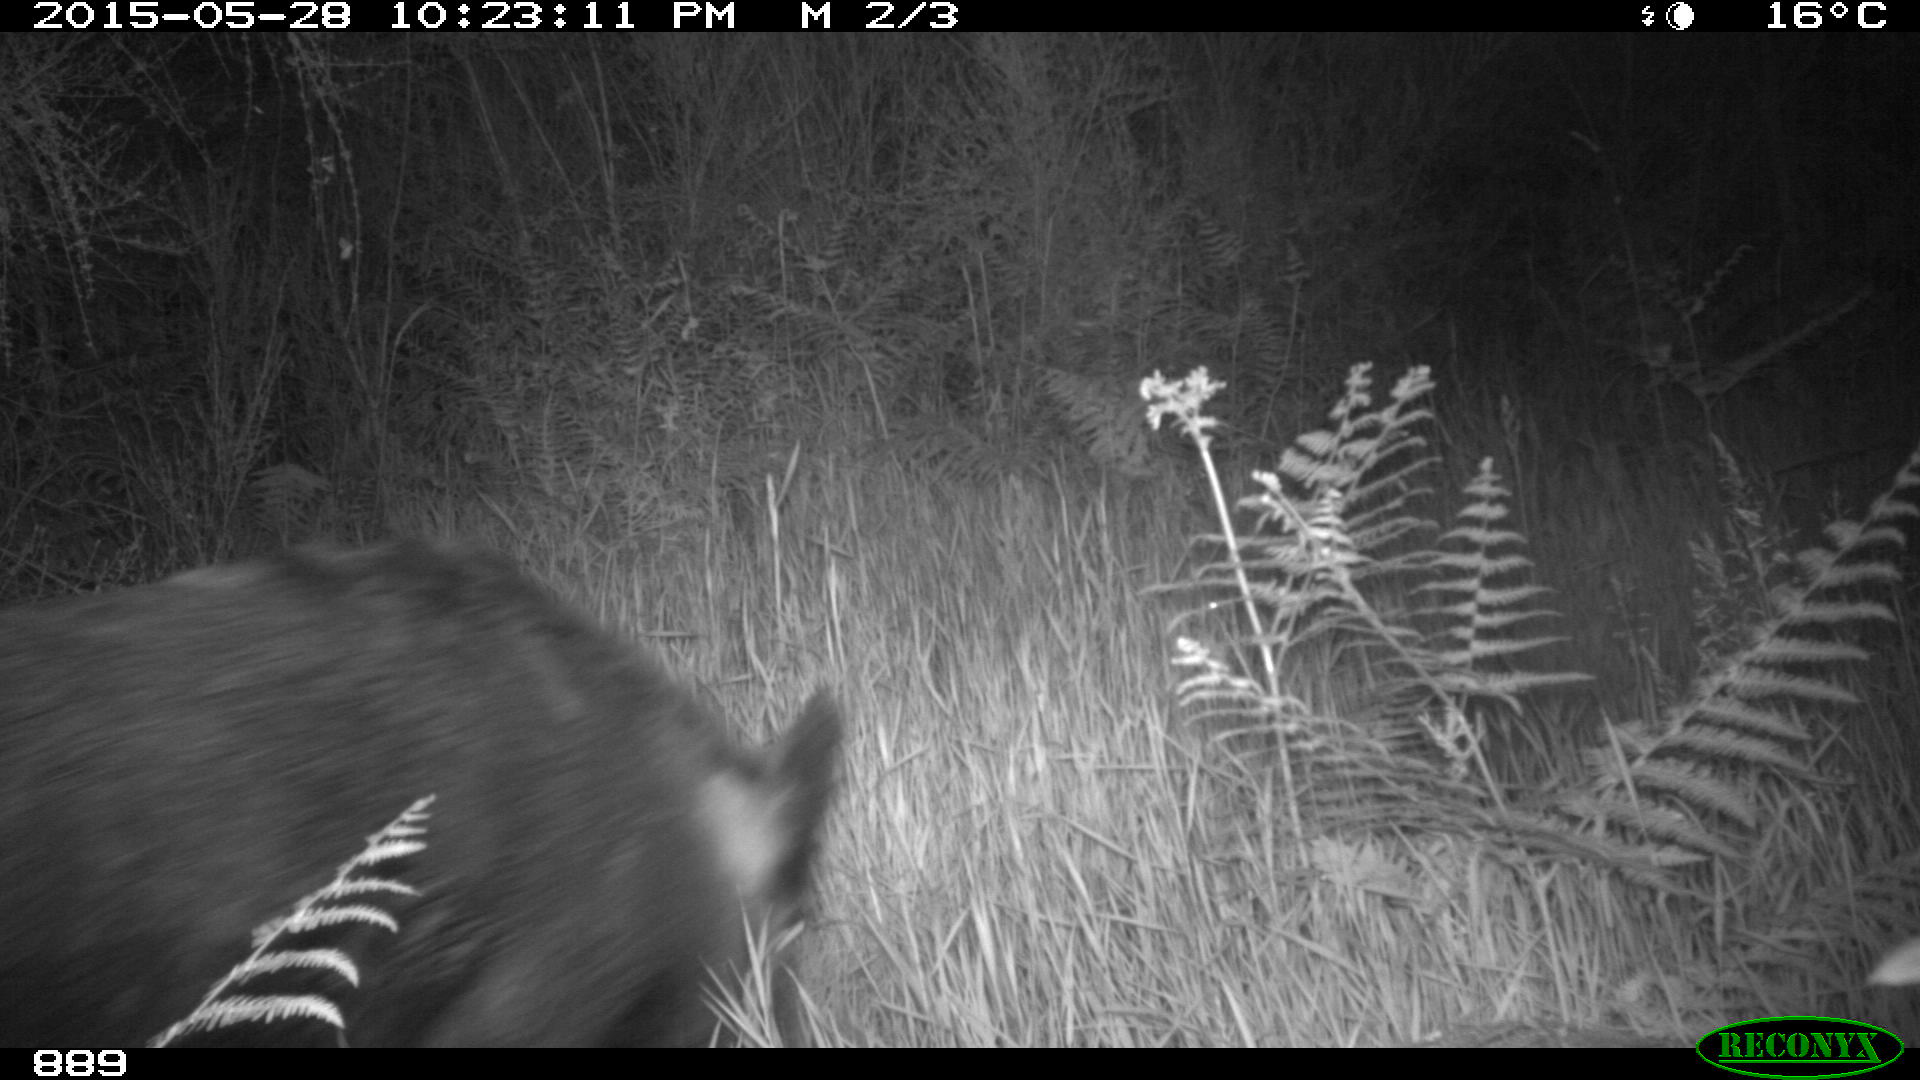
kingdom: Animalia
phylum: Chordata
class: Mammalia
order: Artiodactyla
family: Suidae
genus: Sus
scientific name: Sus scrofa
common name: Wild boar
